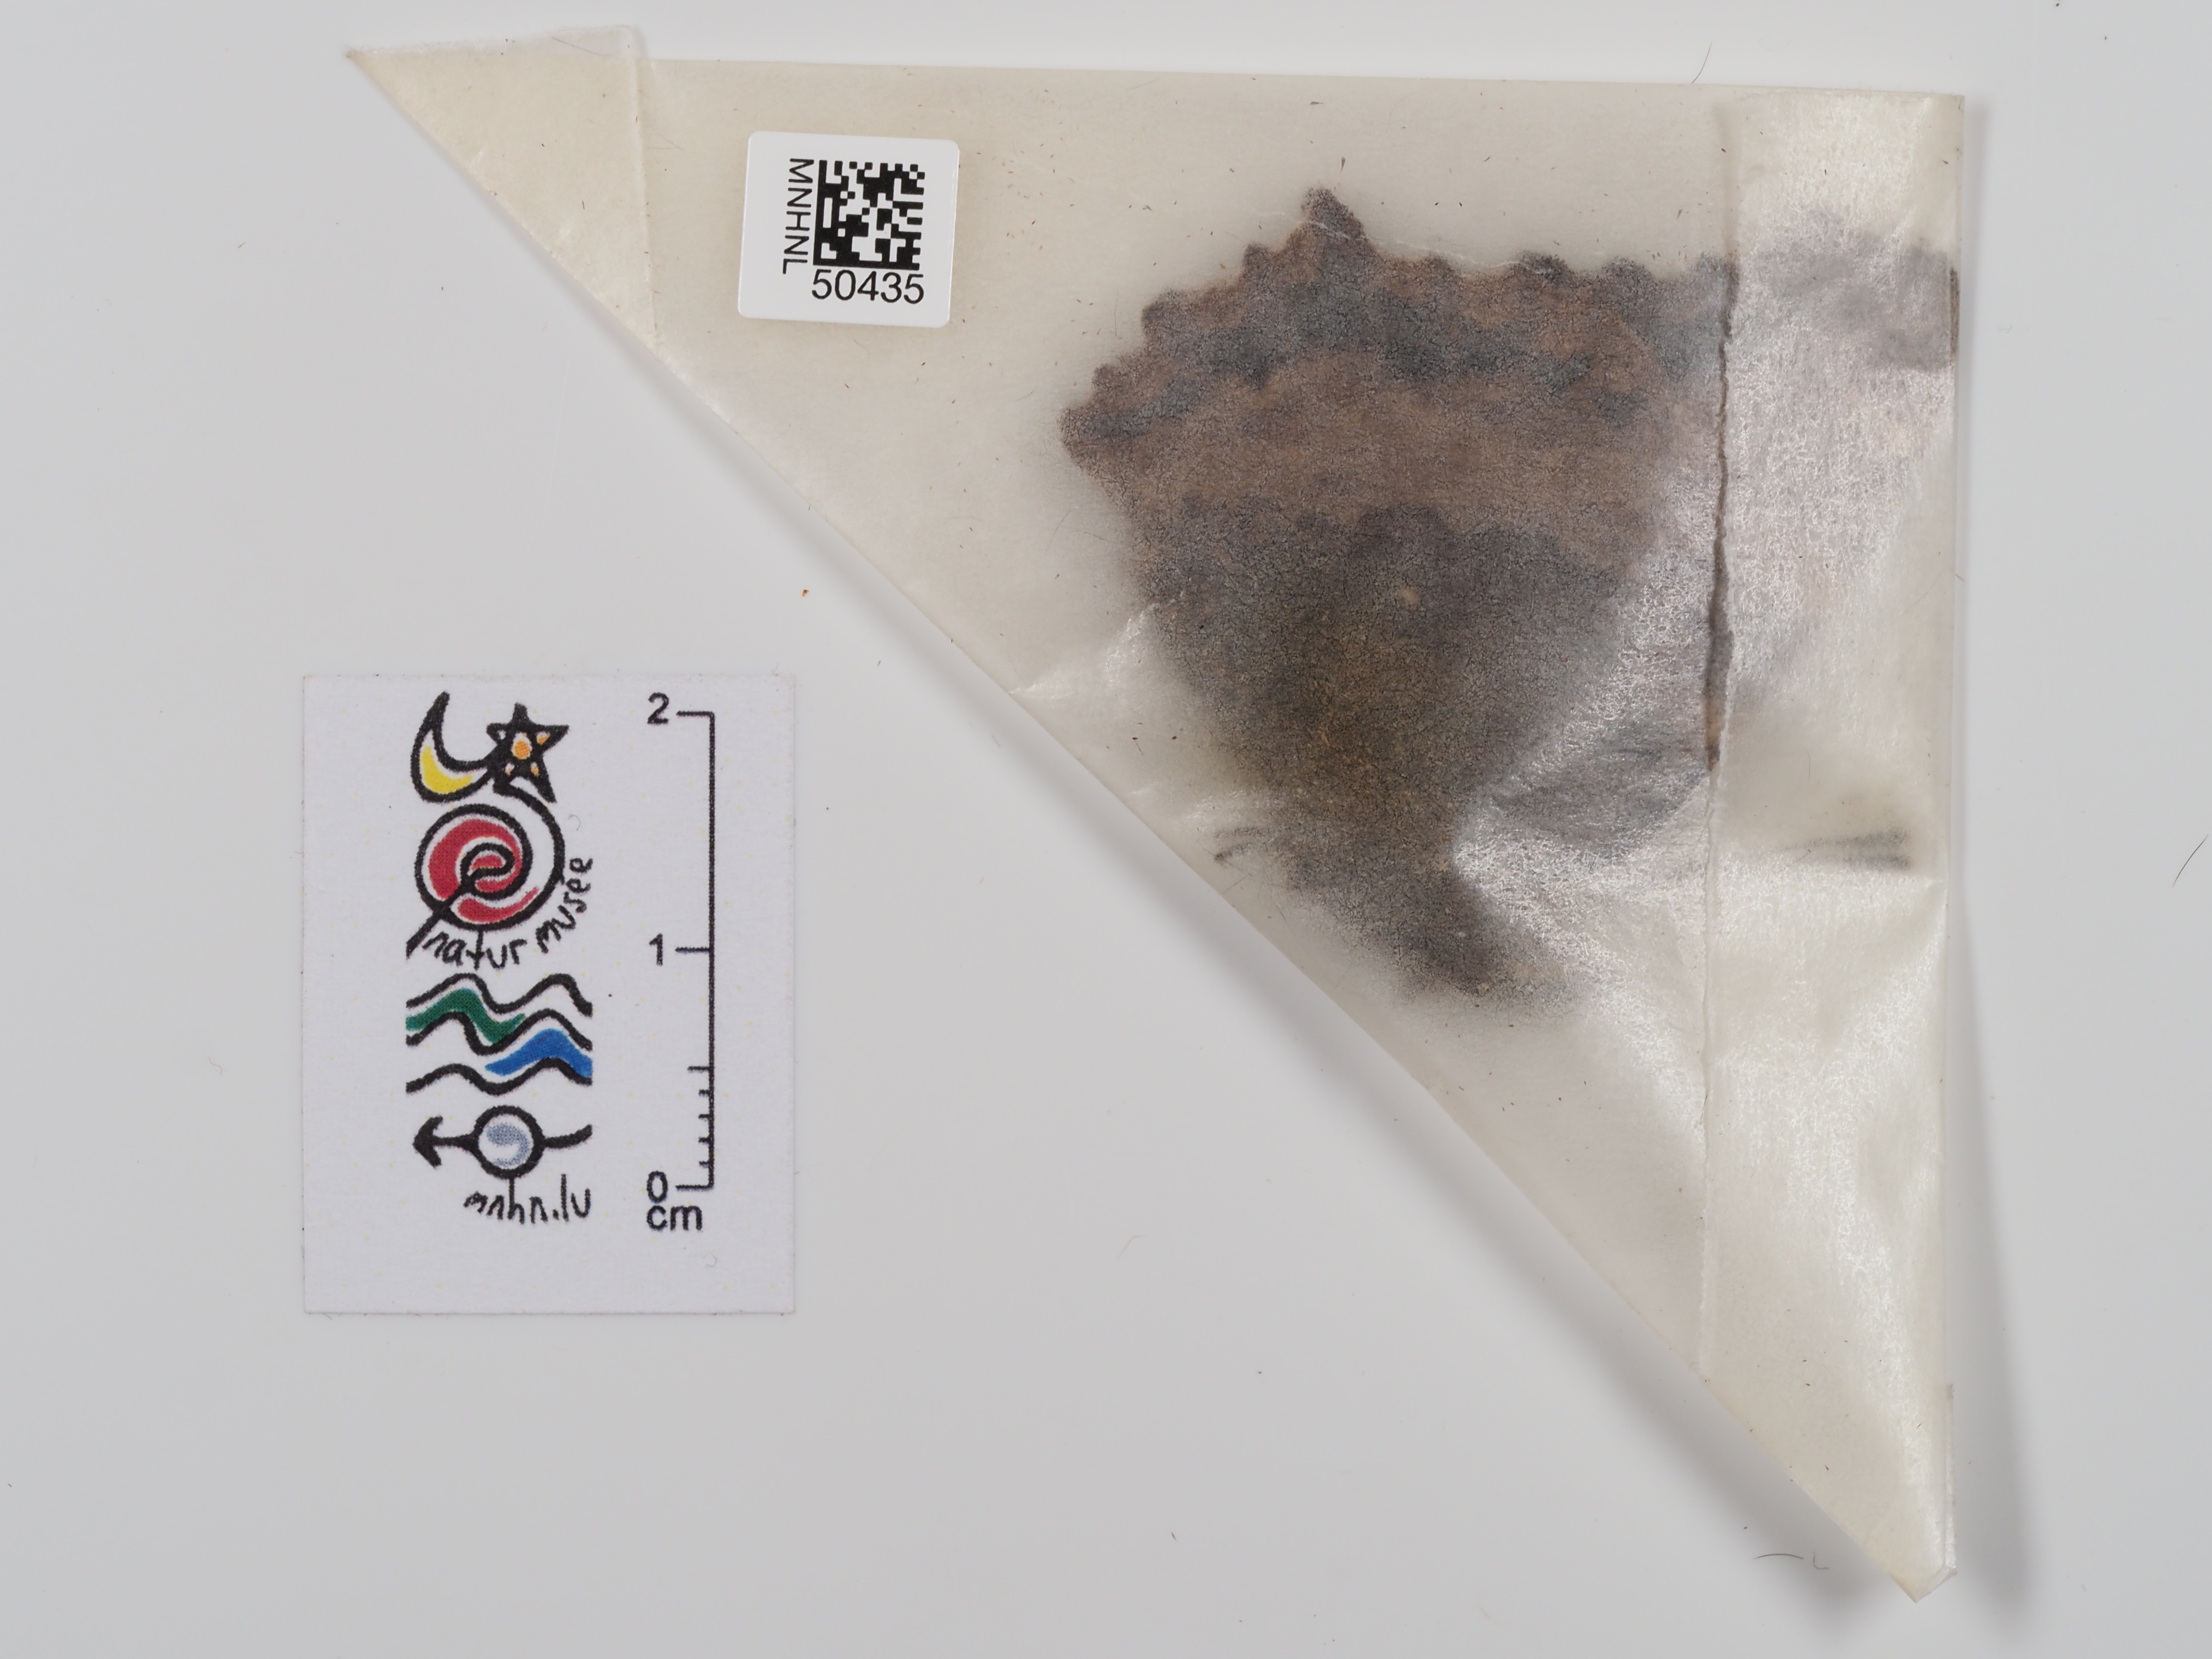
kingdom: Animalia
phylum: Arthropoda
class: Insecta
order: Lepidoptera
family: Nymphalidae
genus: Nymphalis
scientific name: Nymphalis polychloros
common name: Large tortoiseshell
